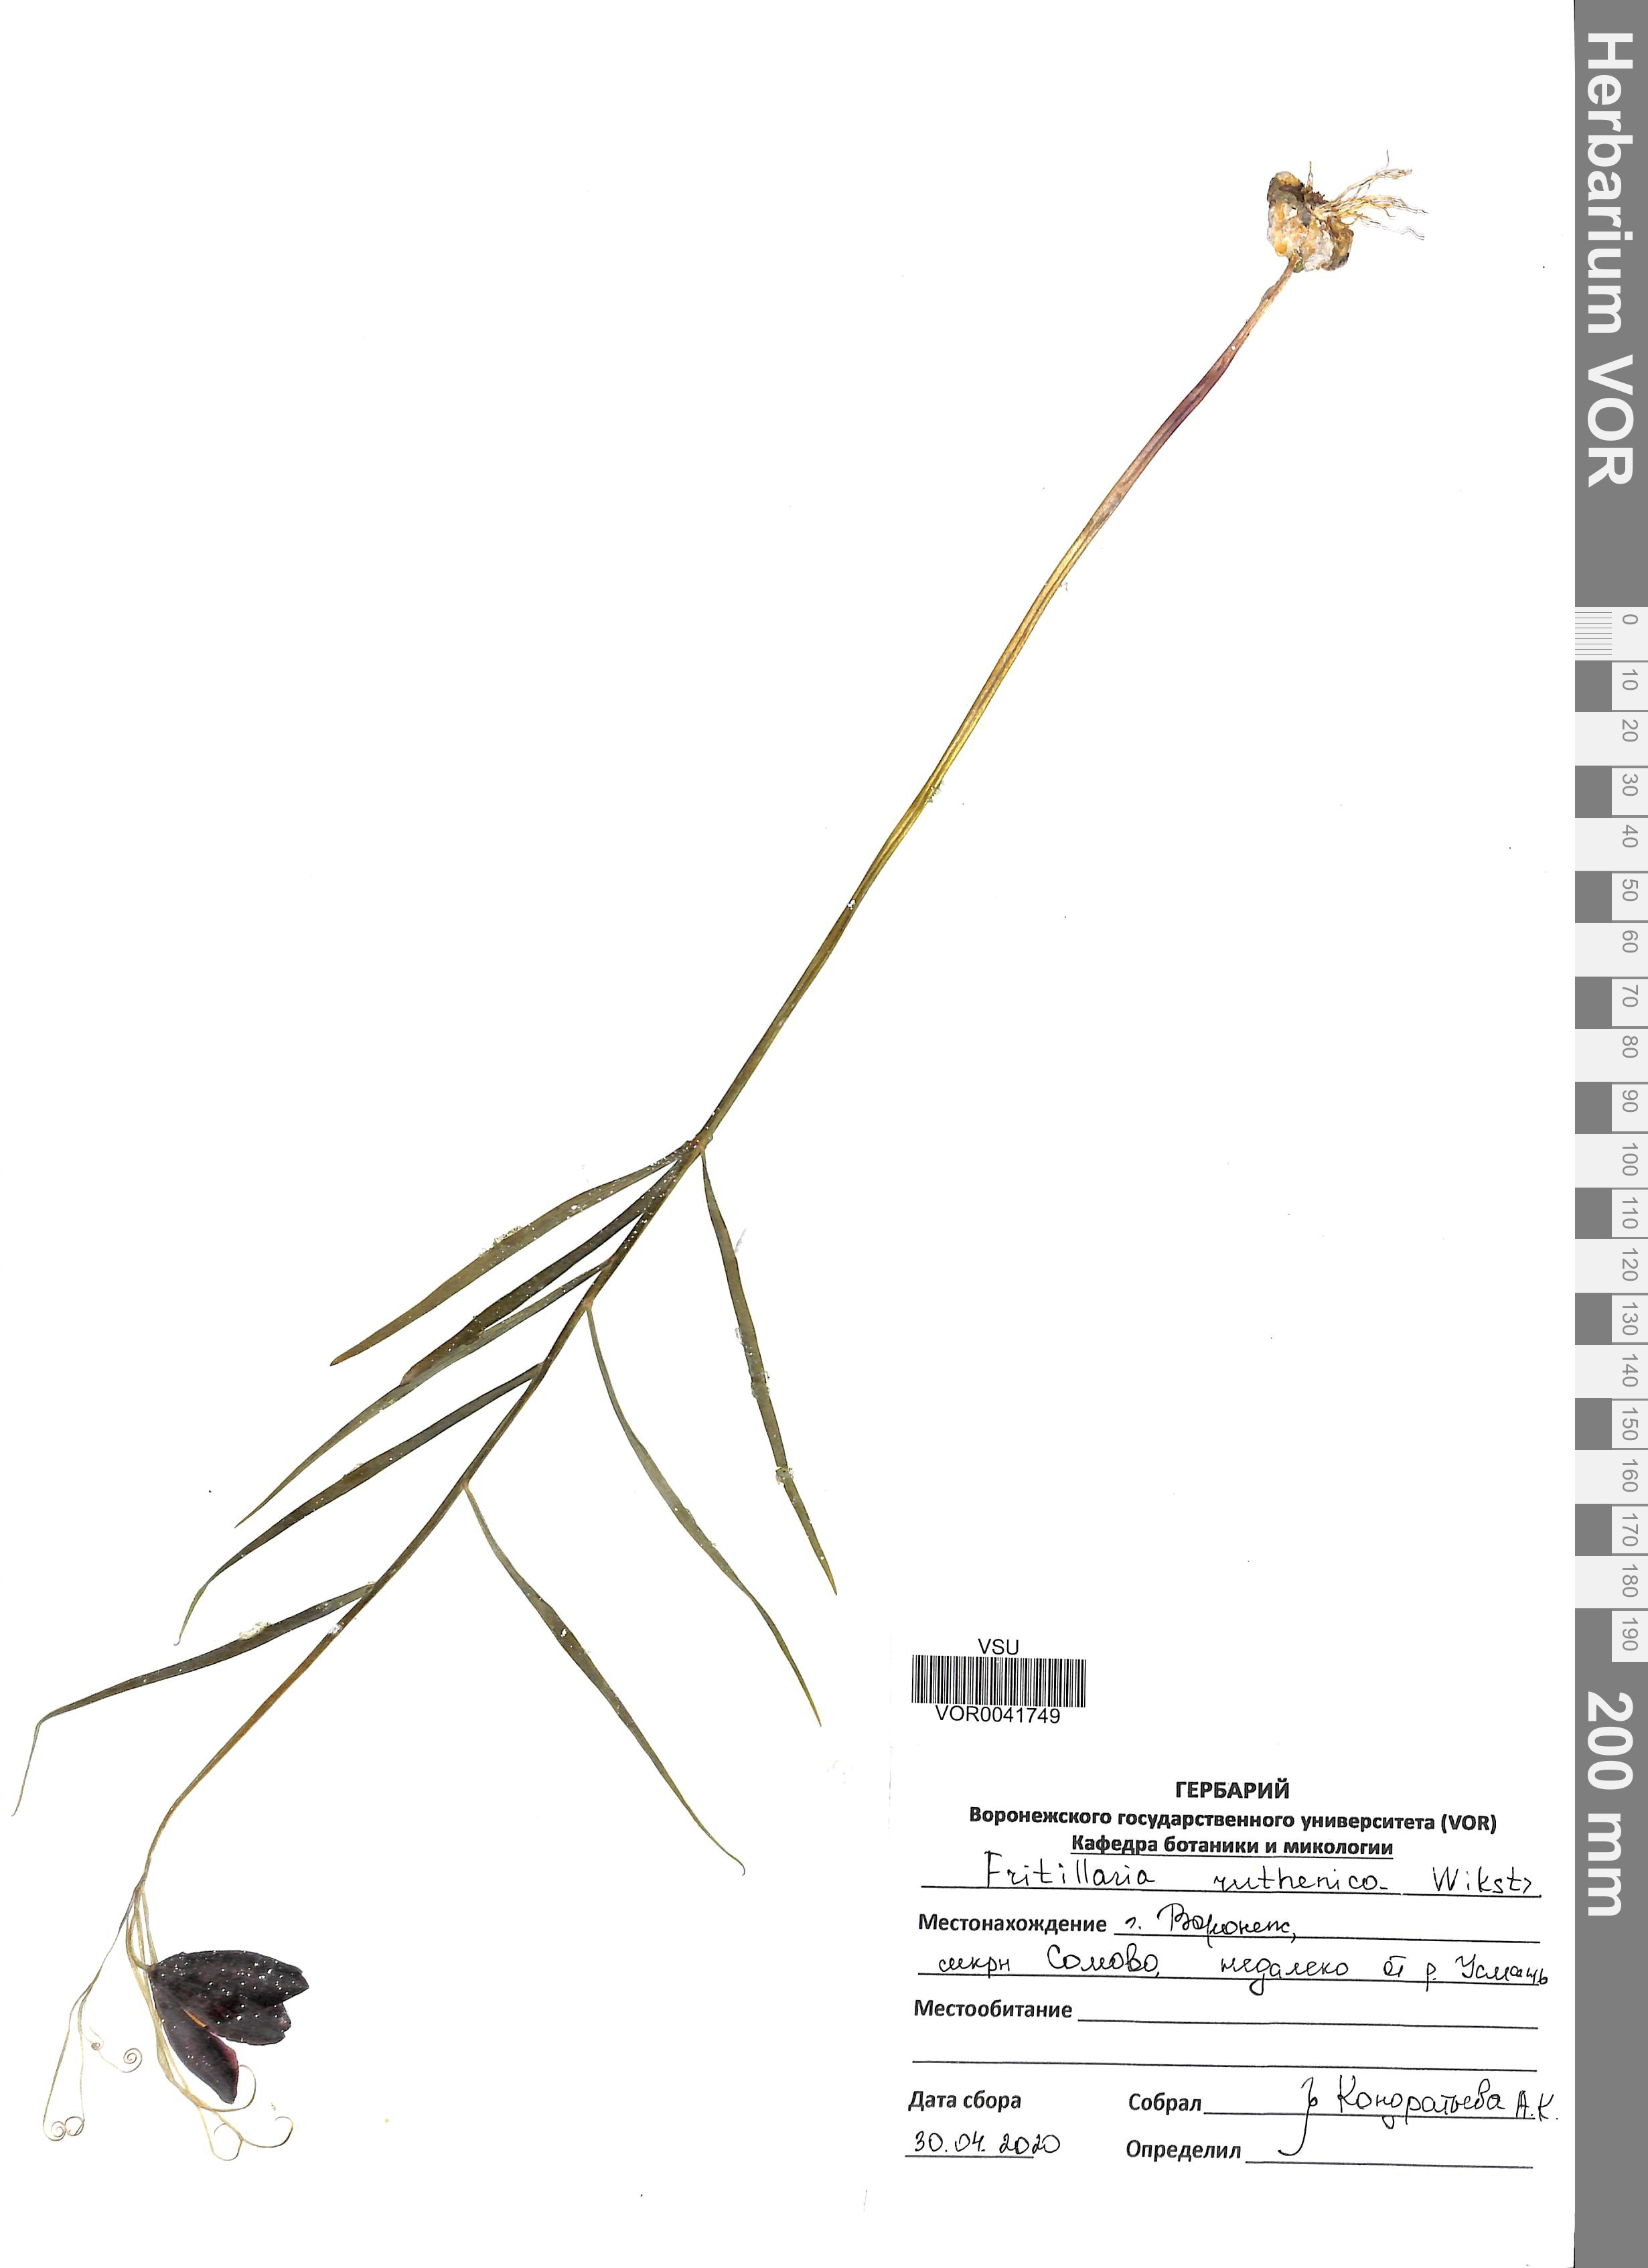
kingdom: Plantae
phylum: Tracheophyta
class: Liliopsida
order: Liliales
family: Liliaceae
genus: Fritillaria
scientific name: Fritillaria ruthenica
